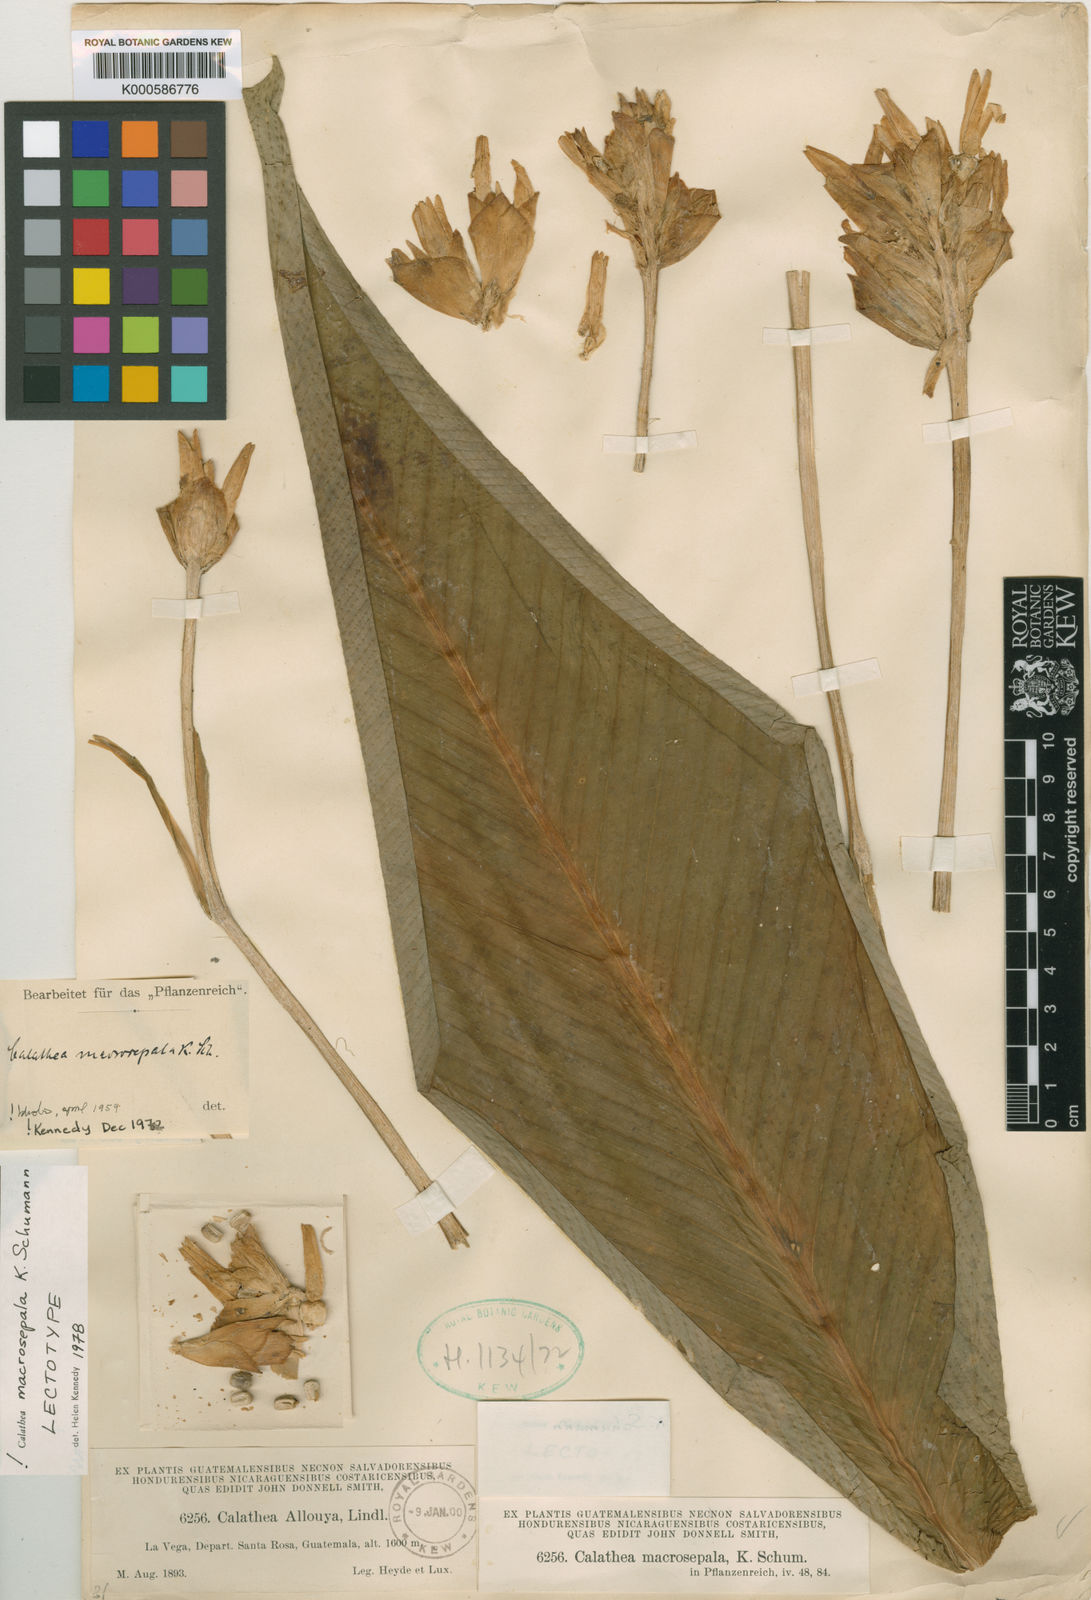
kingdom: Plantae
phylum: Tracheophyta
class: Liliopsida
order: Zingiberales
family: Marantaceae
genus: Goeppertia
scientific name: Goeppertia macrosepala
